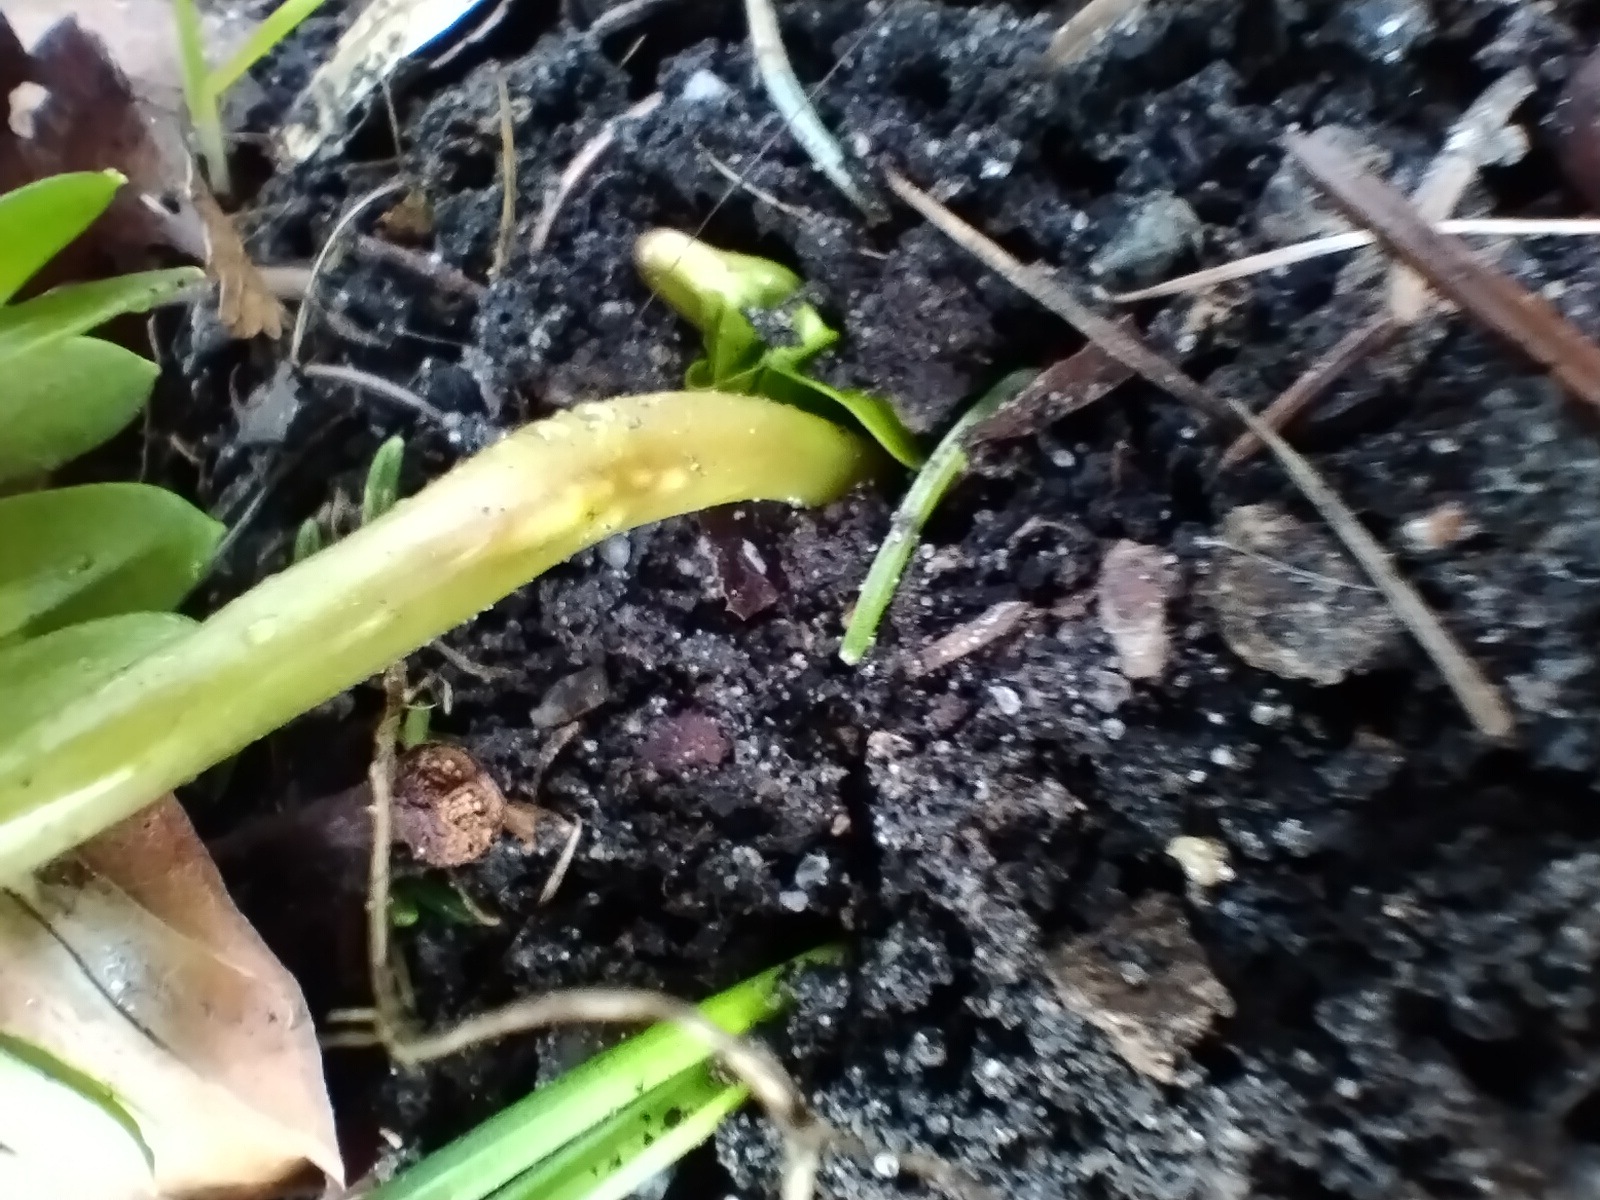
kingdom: Fungi
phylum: Basidiomycota
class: Ustilaginomycetes
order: Urocystidales
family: Urocystidaceae
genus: Urocystis
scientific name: Urocystis eranthidis
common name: erantis-brand
